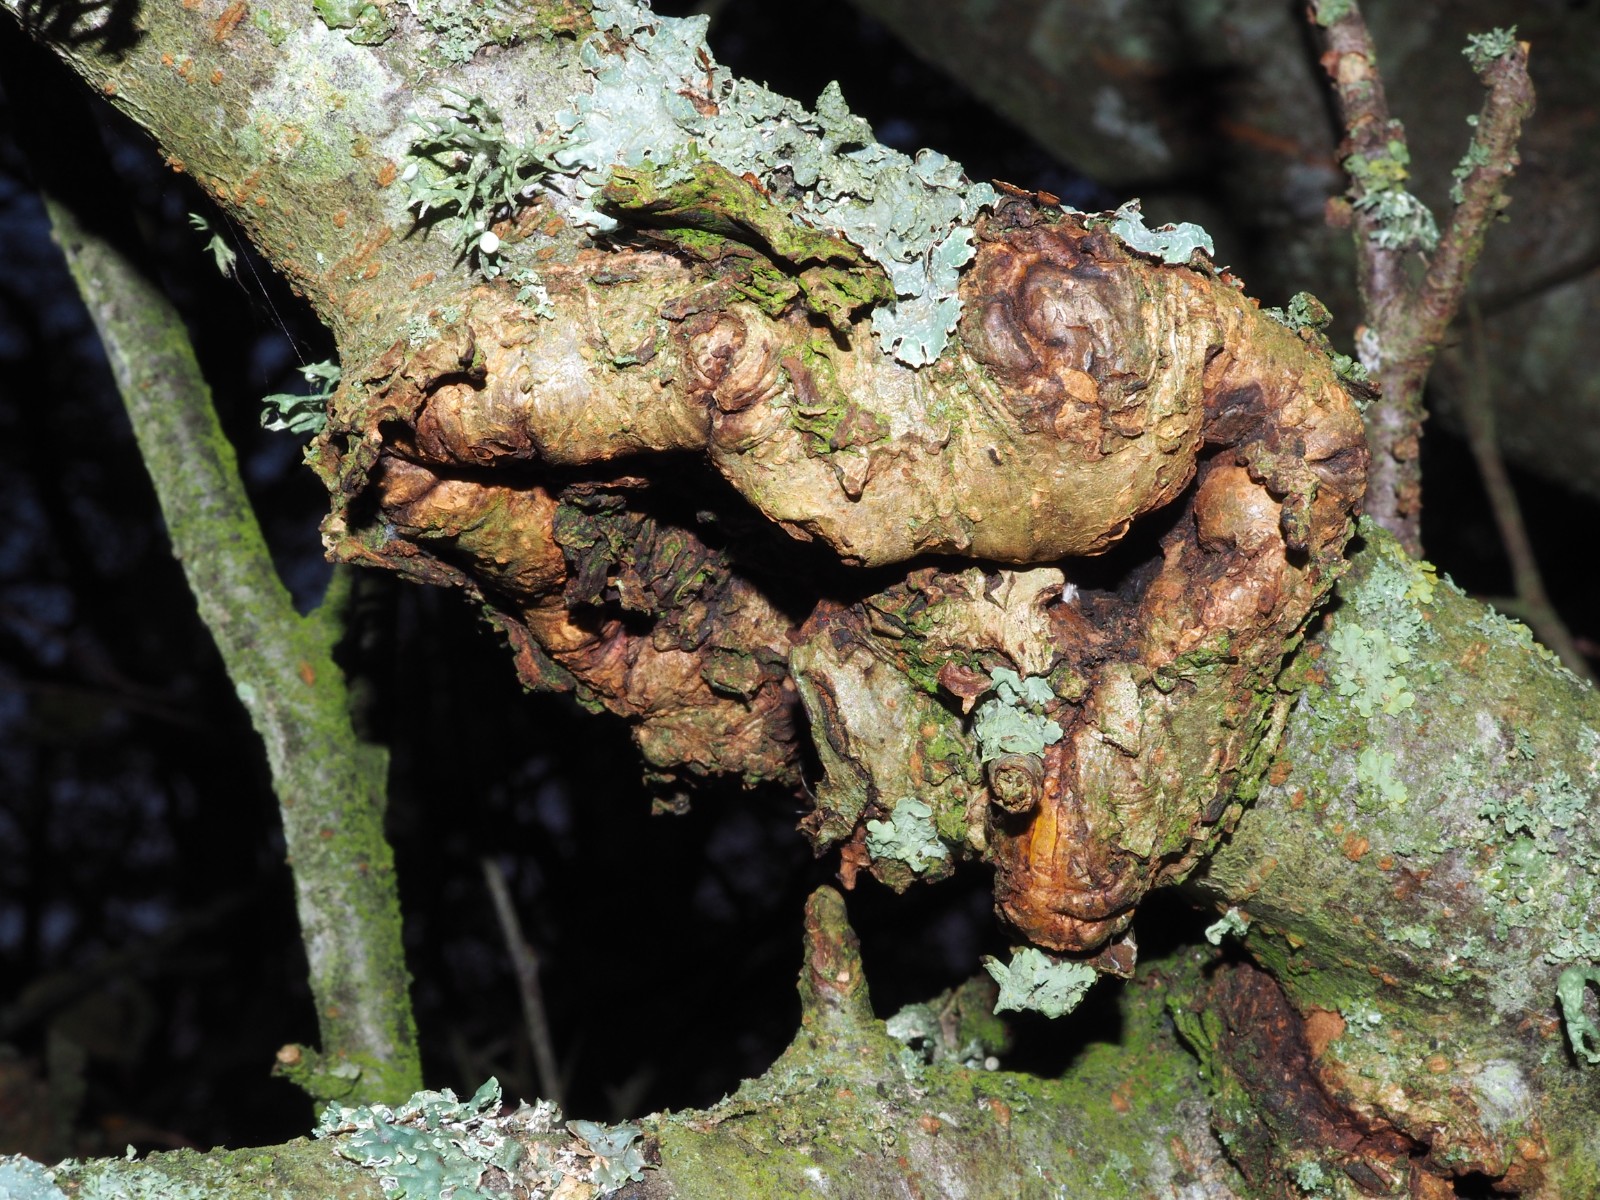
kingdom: Fungi
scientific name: Fungi
